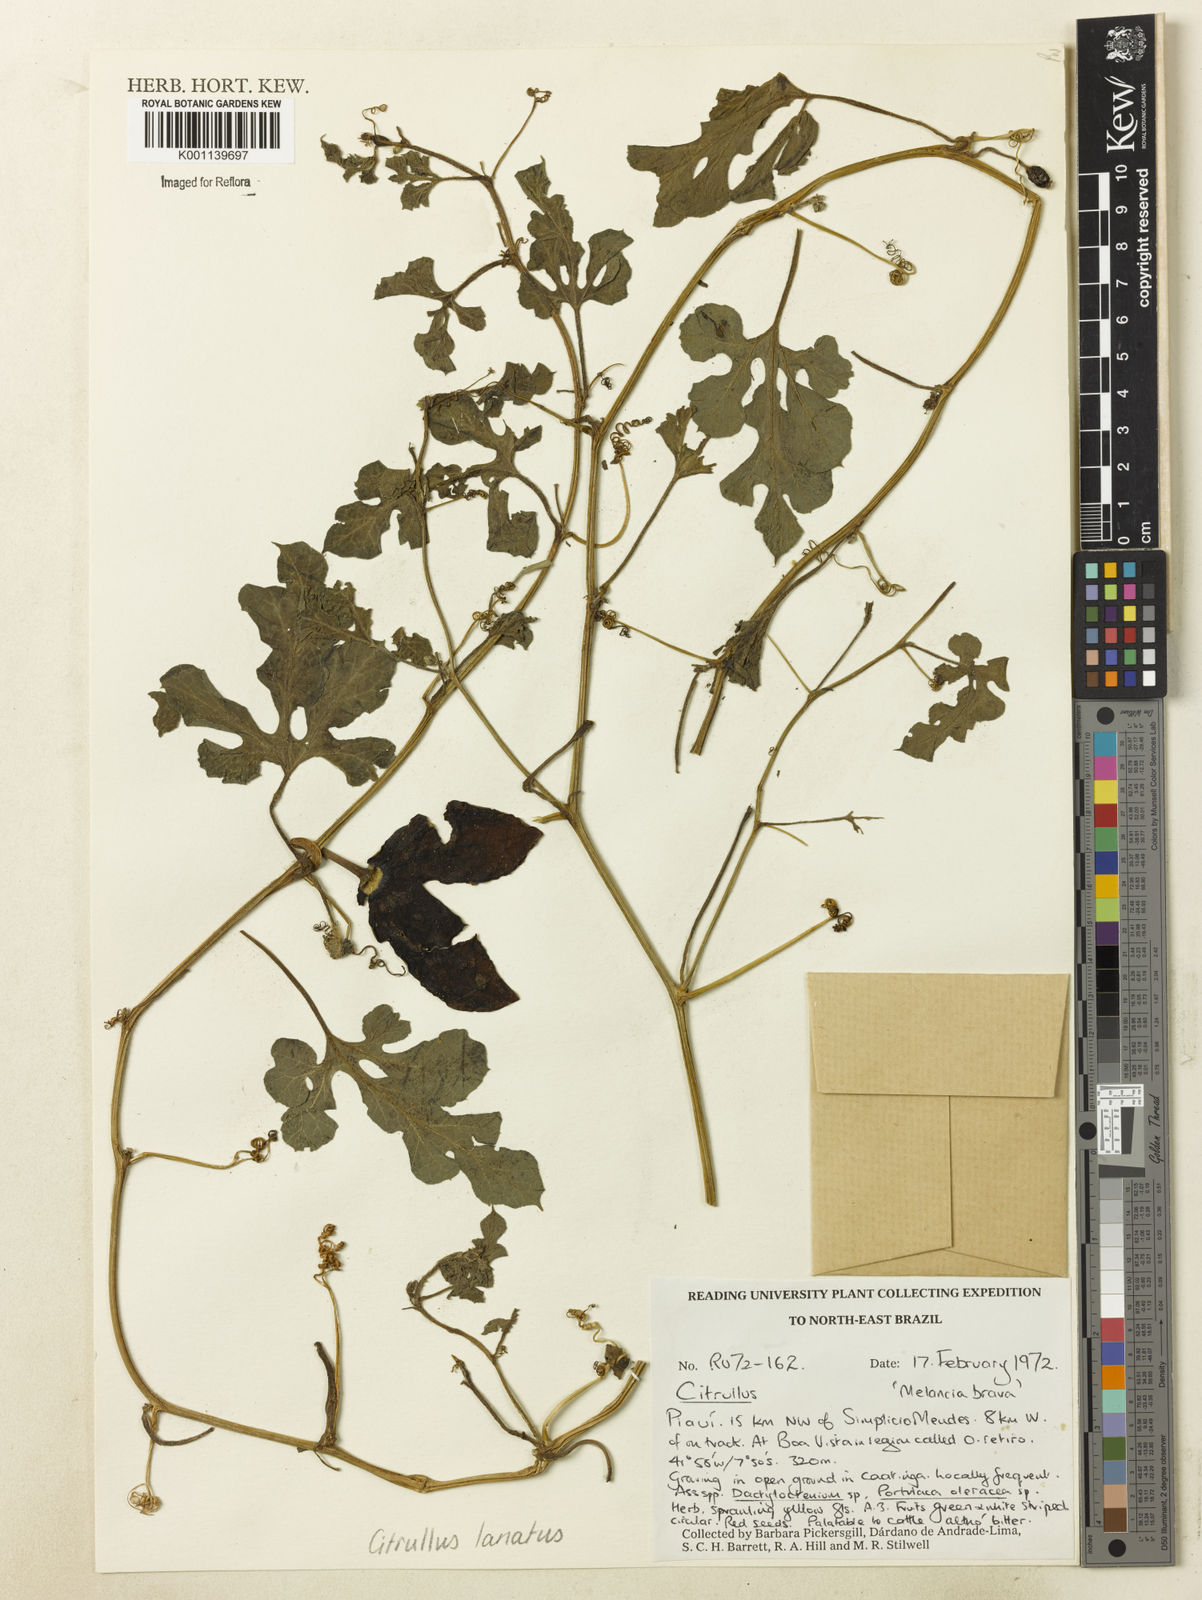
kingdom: Plantae
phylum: Tracheophyta
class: Magnoliopsida
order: Cucurbitales
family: Cucurbitaceae
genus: Citrullus
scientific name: Citrullus lanatus
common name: Watermelon
